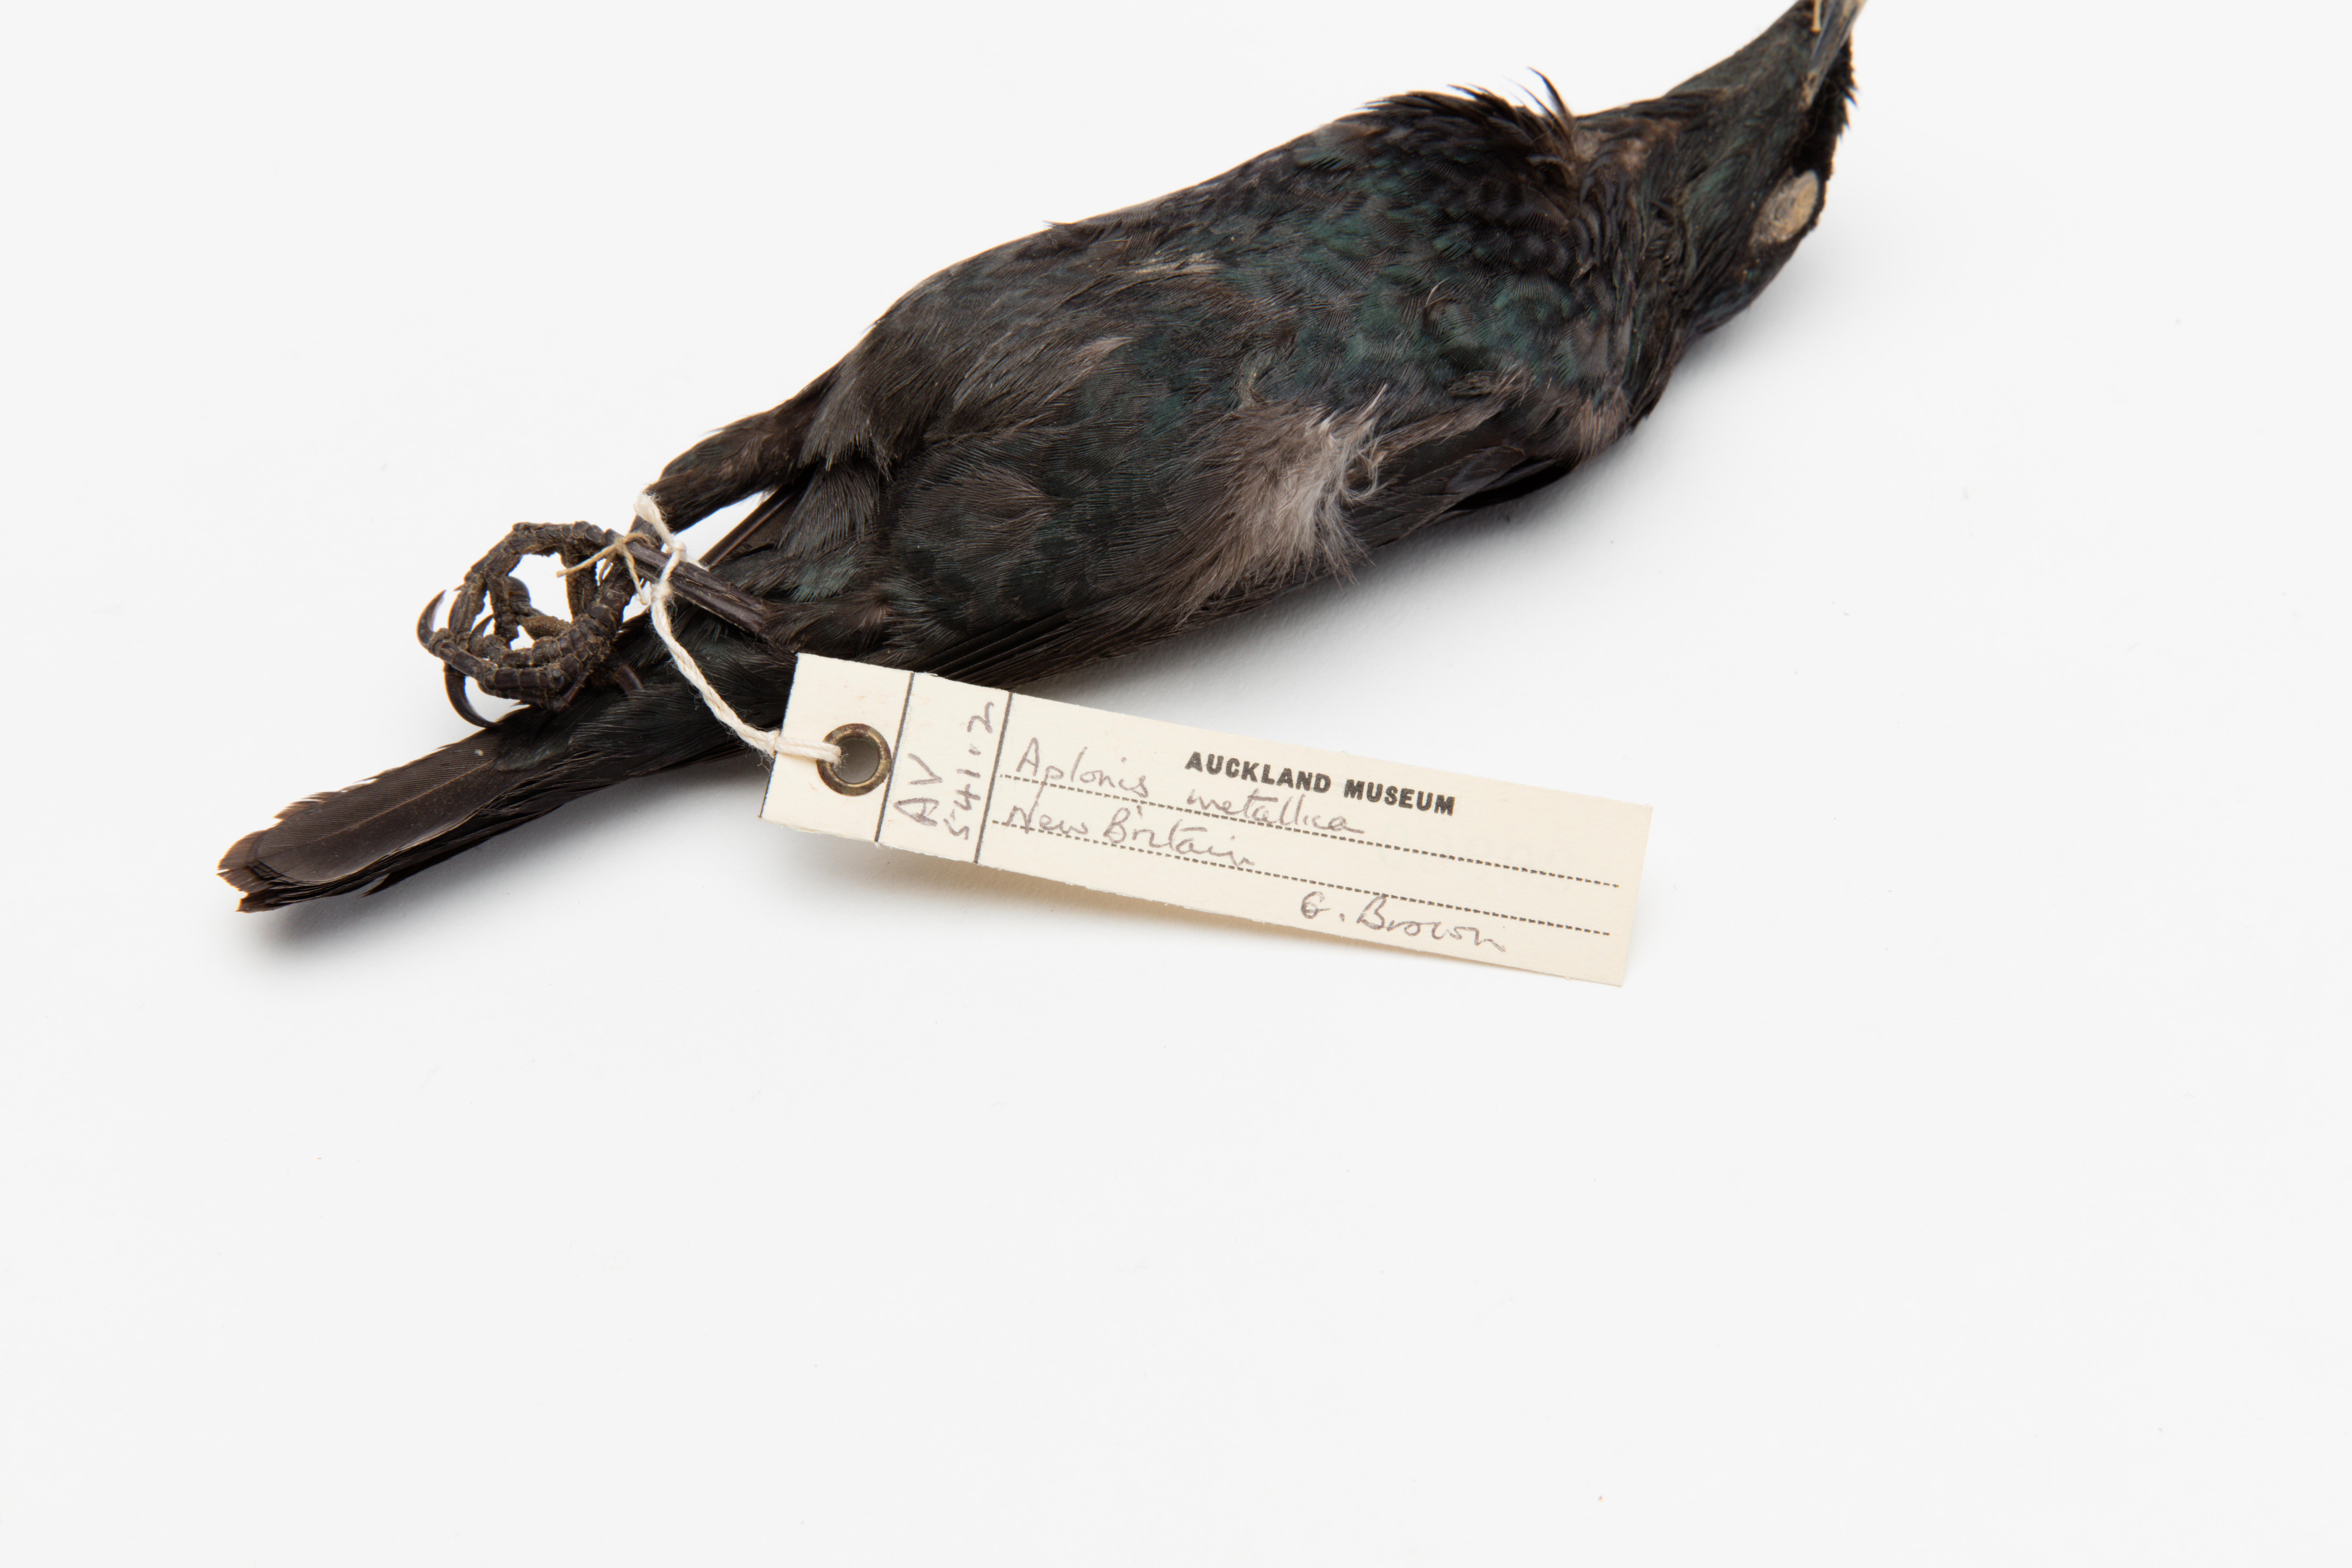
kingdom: Animalia
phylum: Chordata
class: Aves
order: Passeriformes
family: Sturnidae
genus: Aplonis
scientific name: Aplonis metallica
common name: Metallic starling
